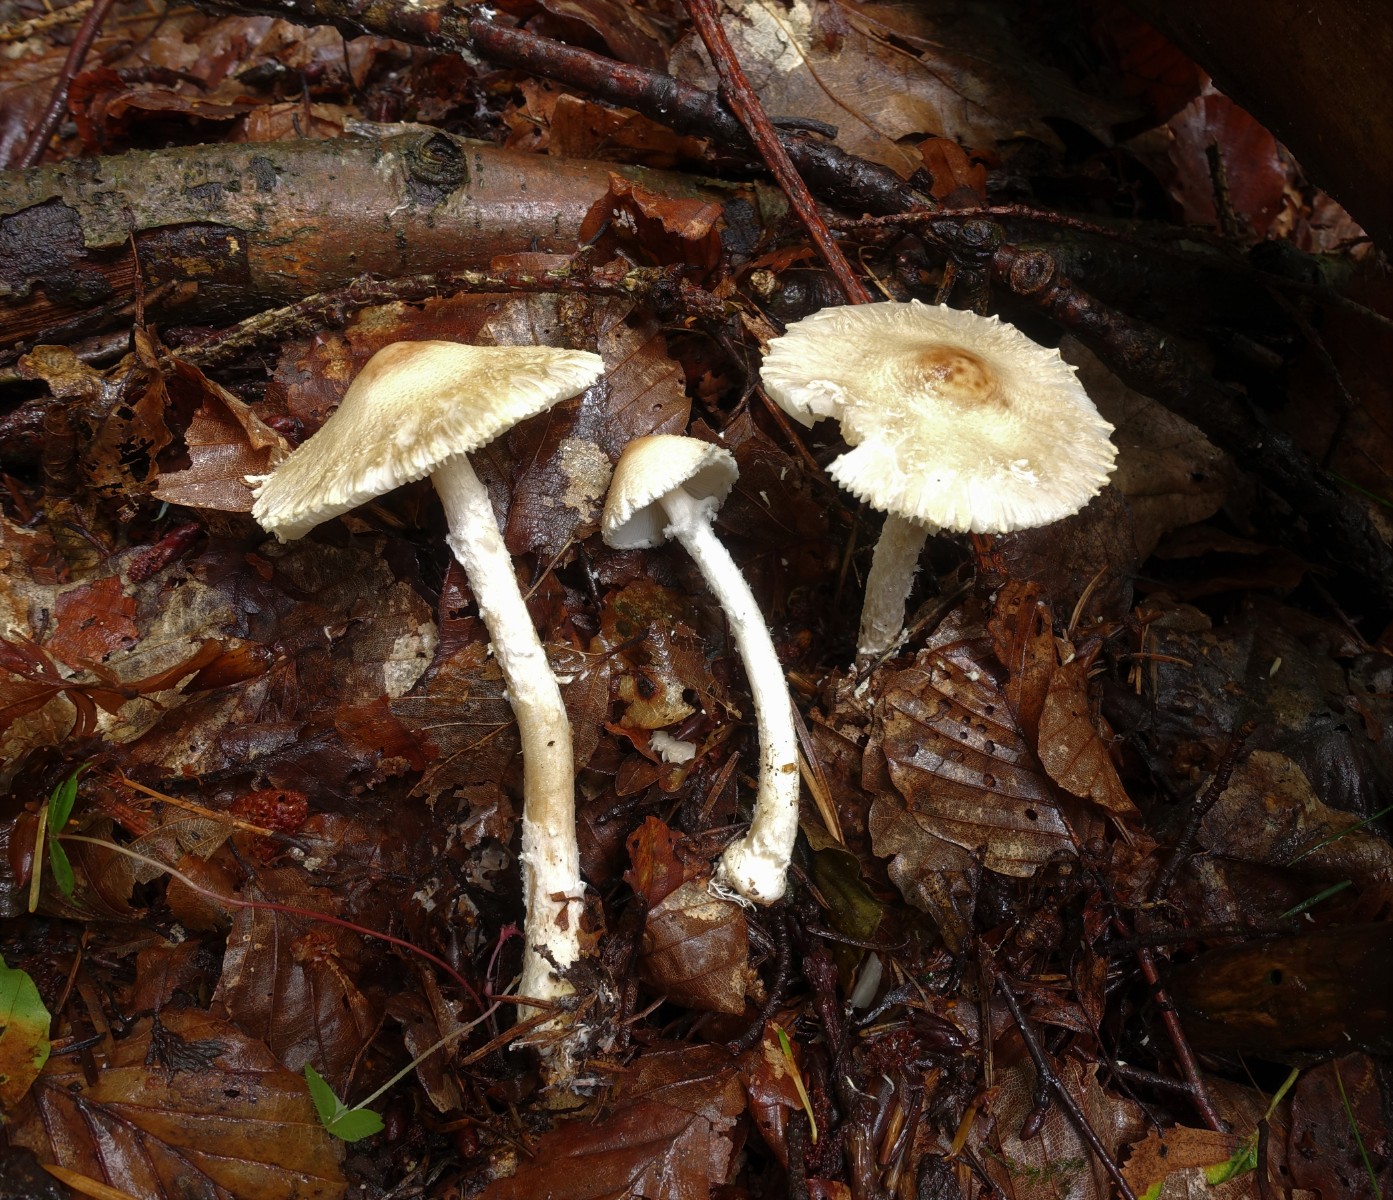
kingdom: Fungi
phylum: Basidiomycota
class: Agaricomycetes
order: Agaricales
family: Agaricaceae
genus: Lepiota
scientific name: Lepiota erminea
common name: hvid parasolhat
